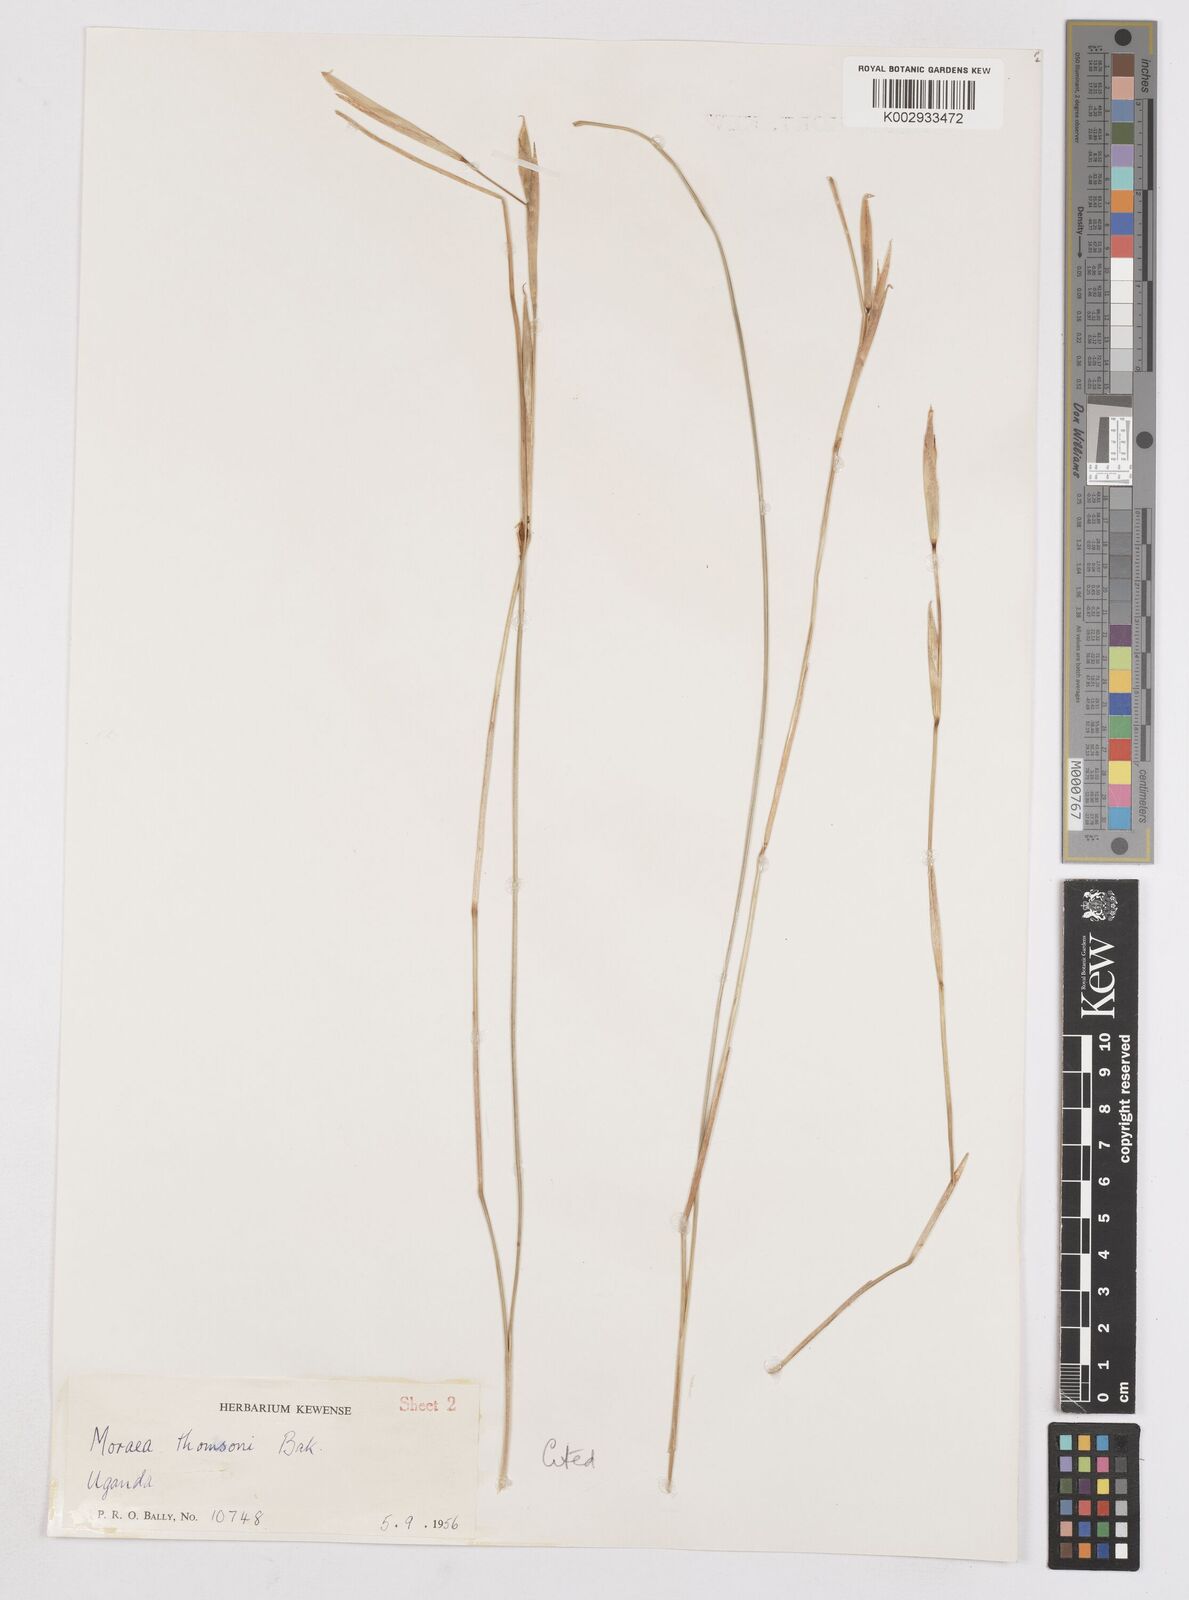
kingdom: Plantae
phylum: Tracheophyta
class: Liliopsida
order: Asparagales
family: Iridaceae
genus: Moraea
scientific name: Moraea stricta
